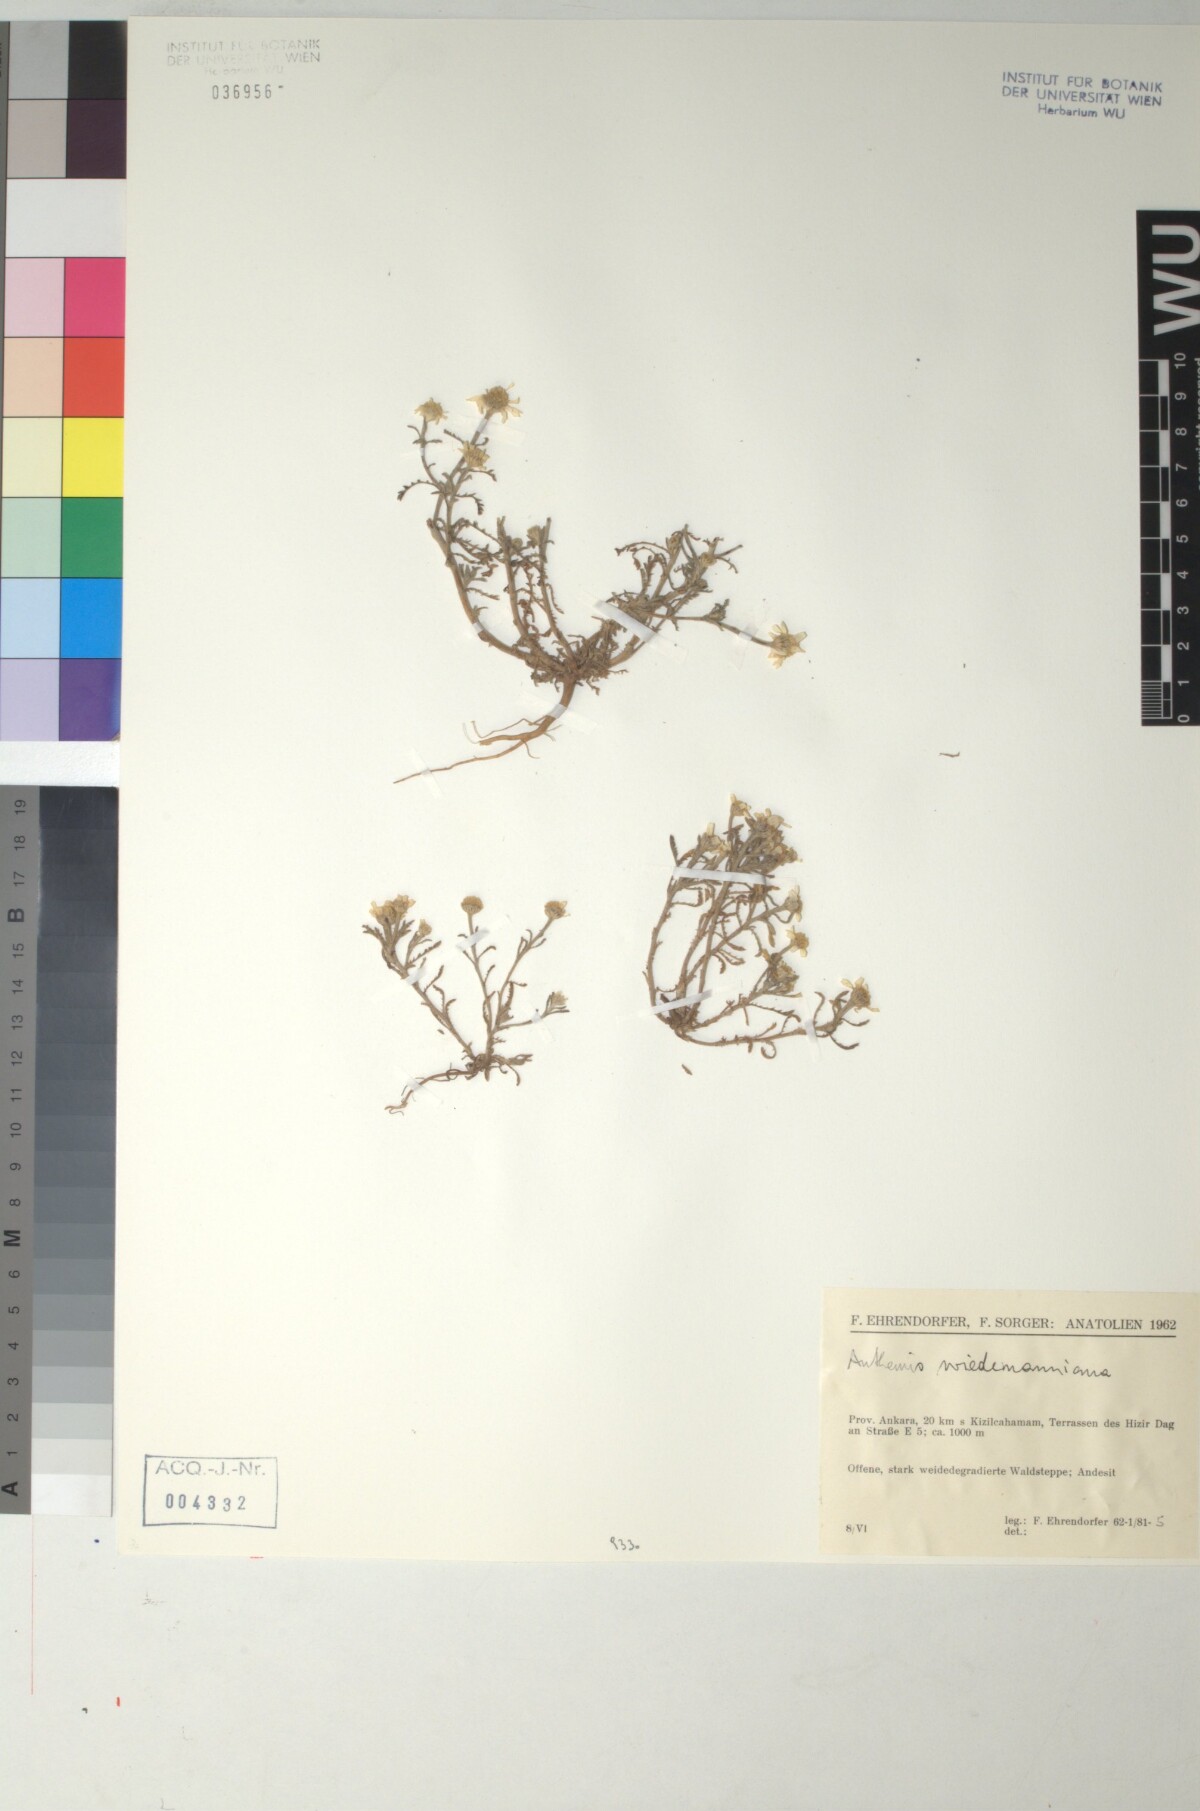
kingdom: Plantae
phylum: Tracheophyta
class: Magnoliopsida
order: Asterales
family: Asteraceae
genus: Cota
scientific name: Cota wiedemanniana
